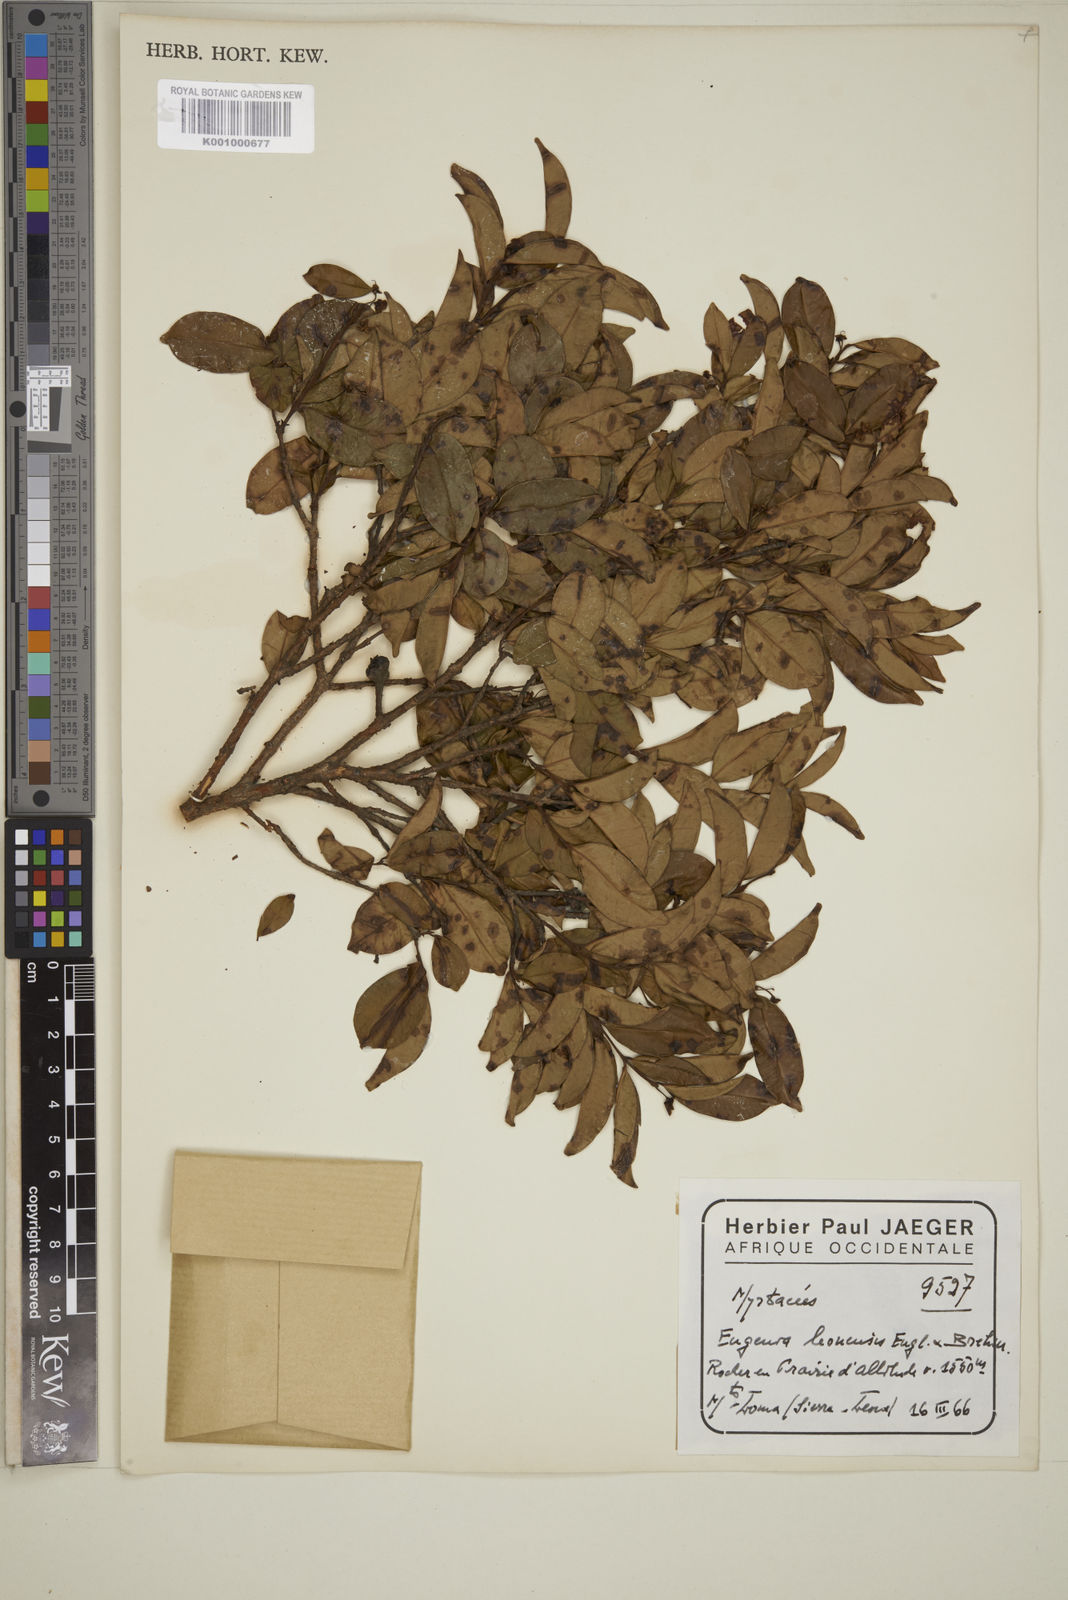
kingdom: Plantae
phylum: Tracheophyta
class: Magnoliopsida
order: Myrtales
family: Myrtaceae
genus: Eugenia
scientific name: Eugenia leonensis
